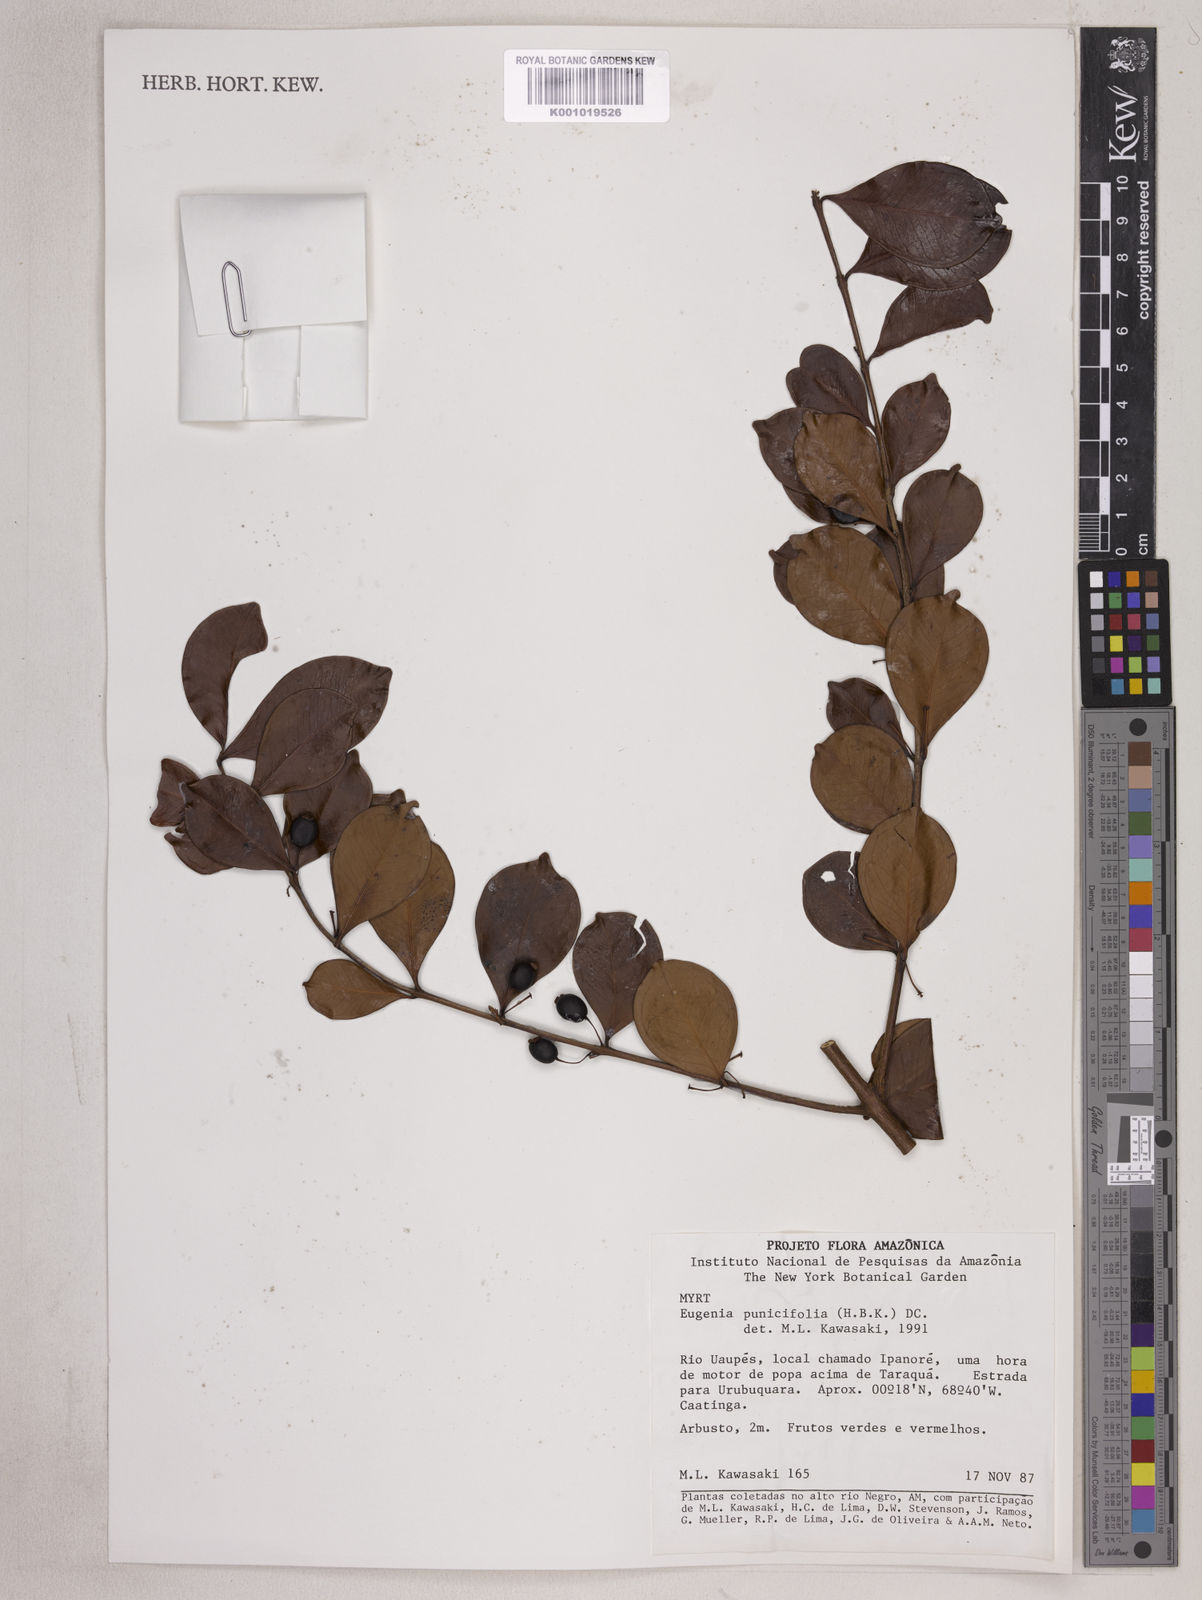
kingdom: Plantae
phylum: Tracheophyta
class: Magnoliopsida
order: Myrtales
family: Myrtaceae
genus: Eugenia
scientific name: Eugenia punicifolia
